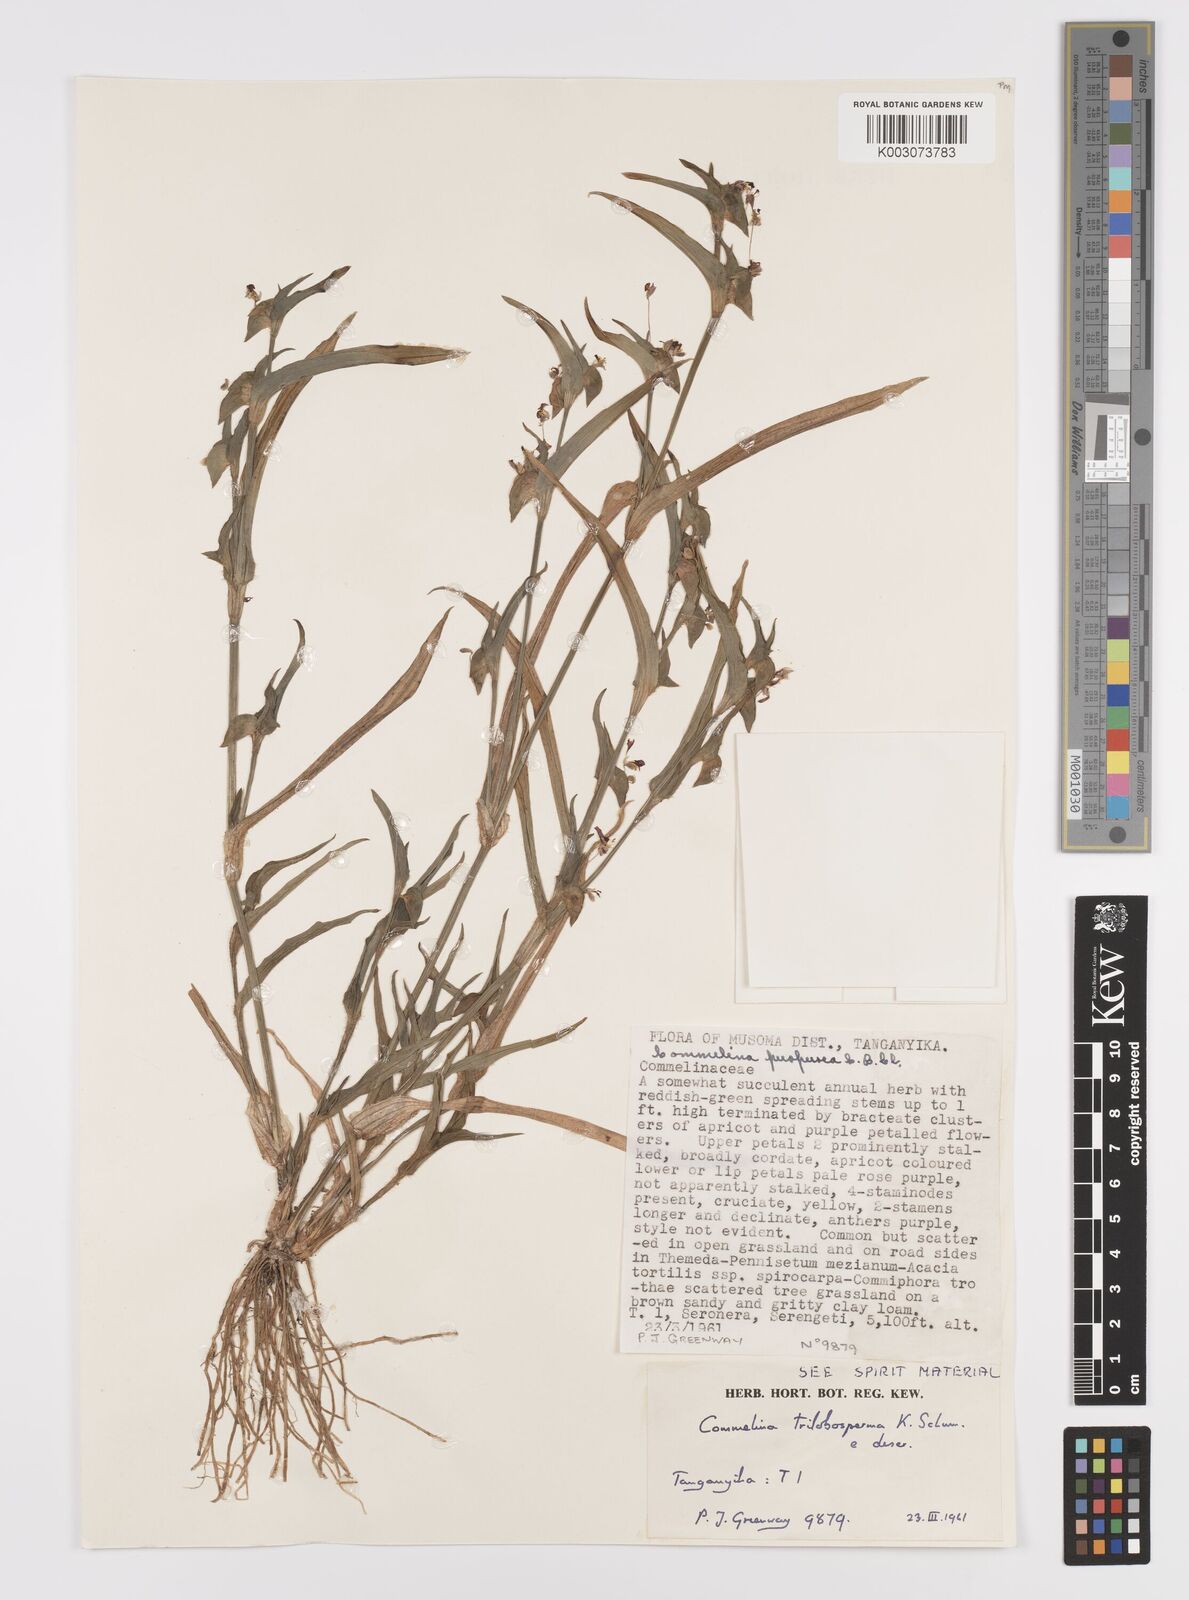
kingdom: Plantae
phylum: Tracheophyta
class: Liliopsida
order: Commelinales
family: Commelinaceae
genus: Commelina
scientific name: Commelina trilobosperma
